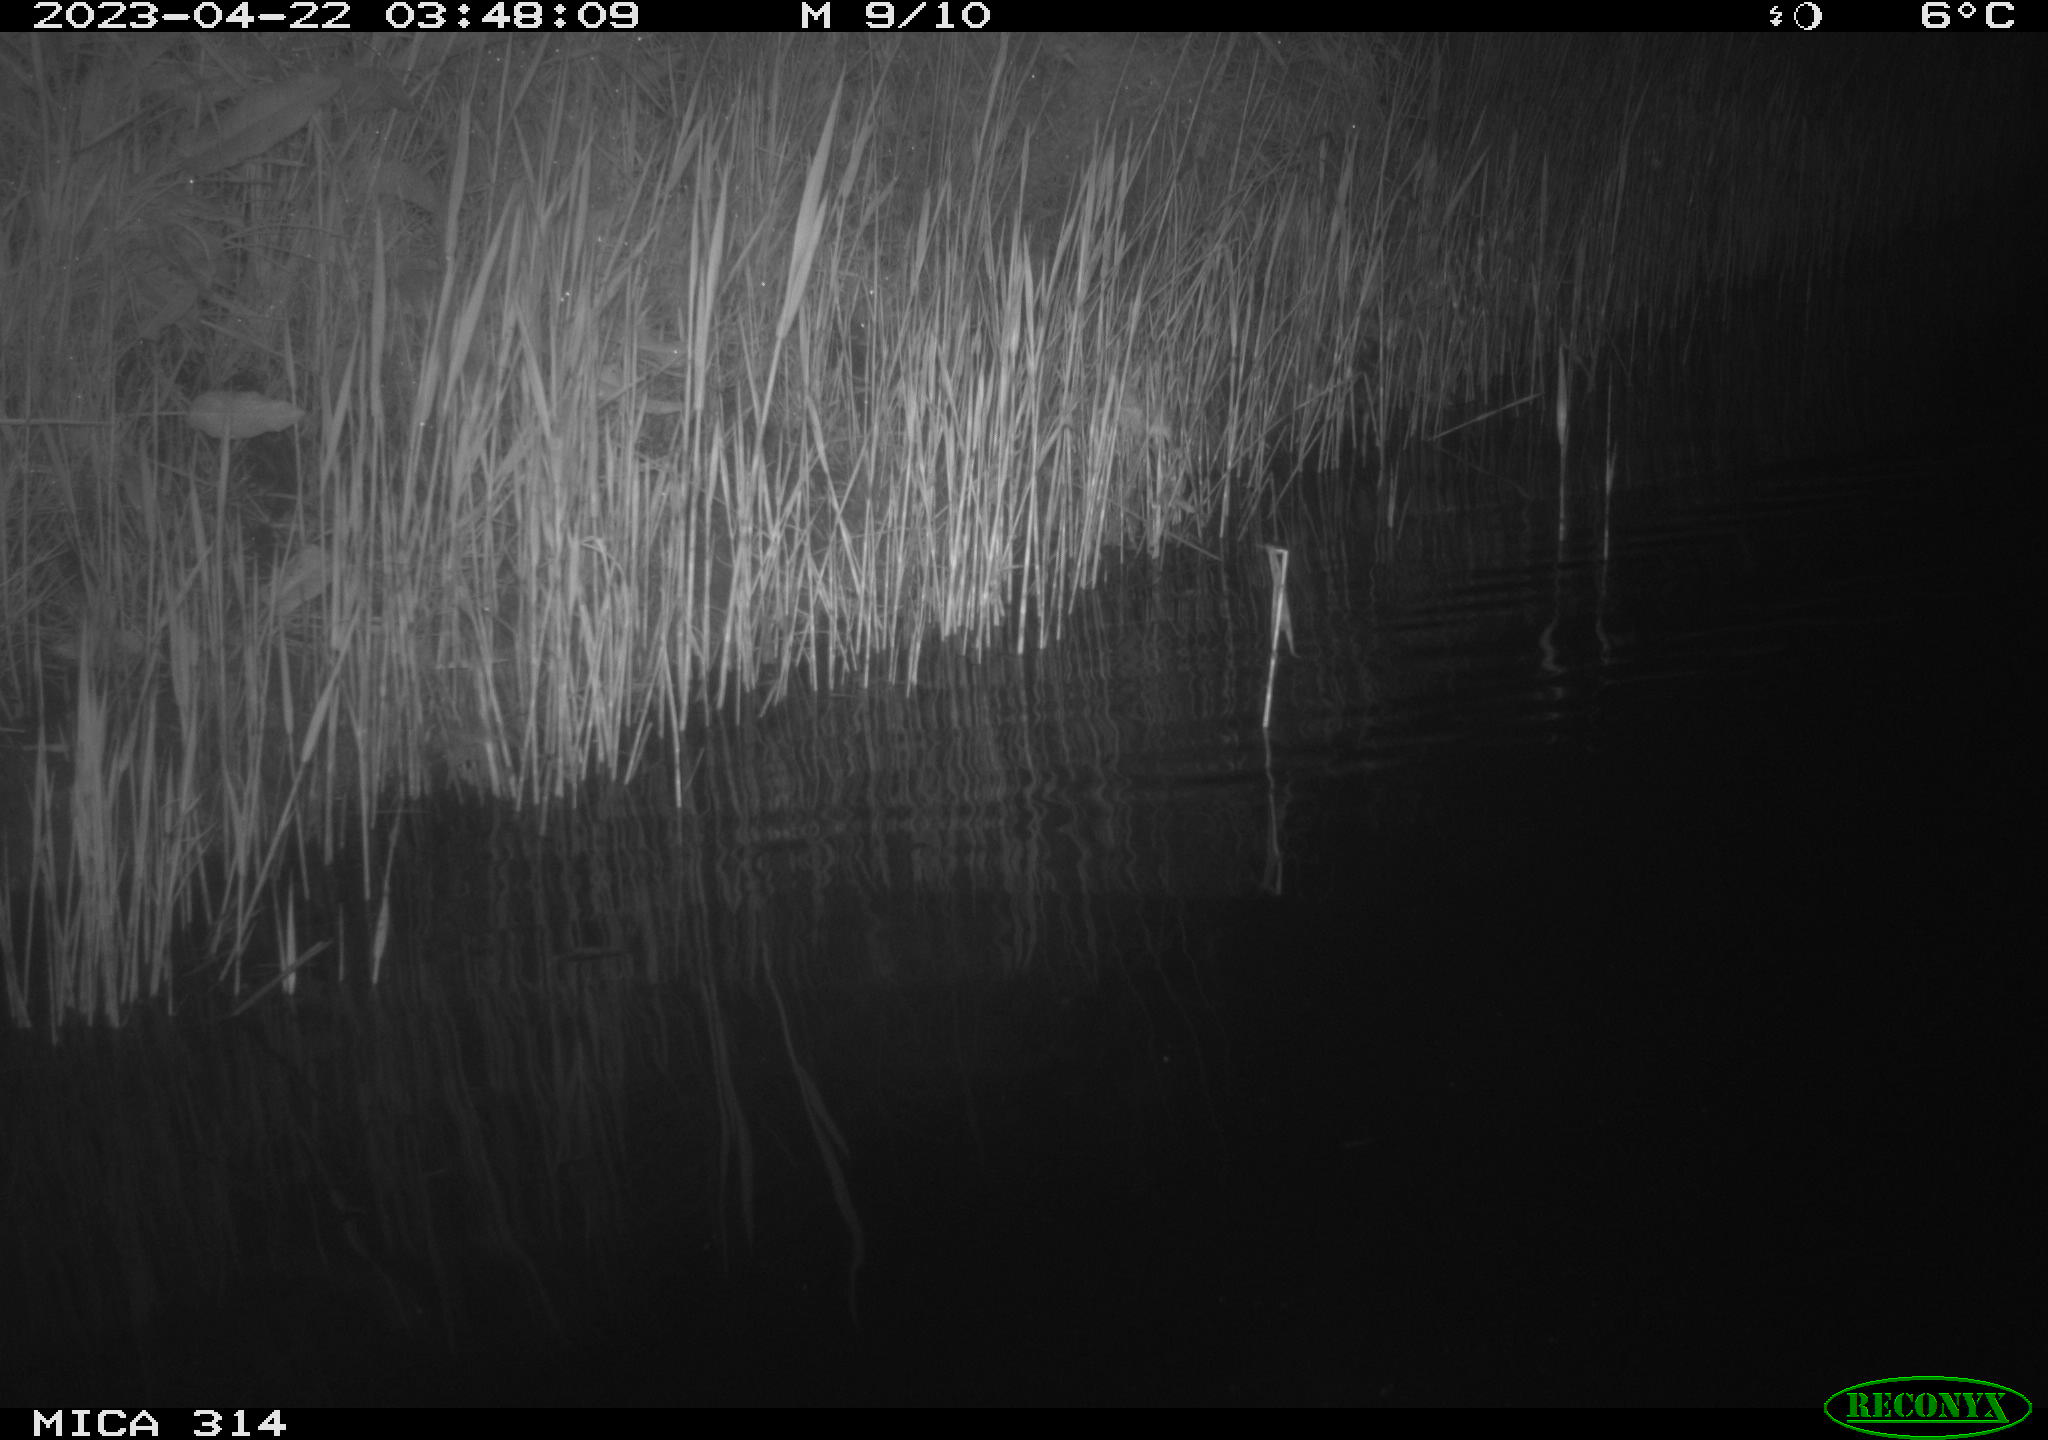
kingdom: Animalia
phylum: Chordata
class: Aves
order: Anseriformes
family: Anatidae
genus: Anas
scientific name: Anas
